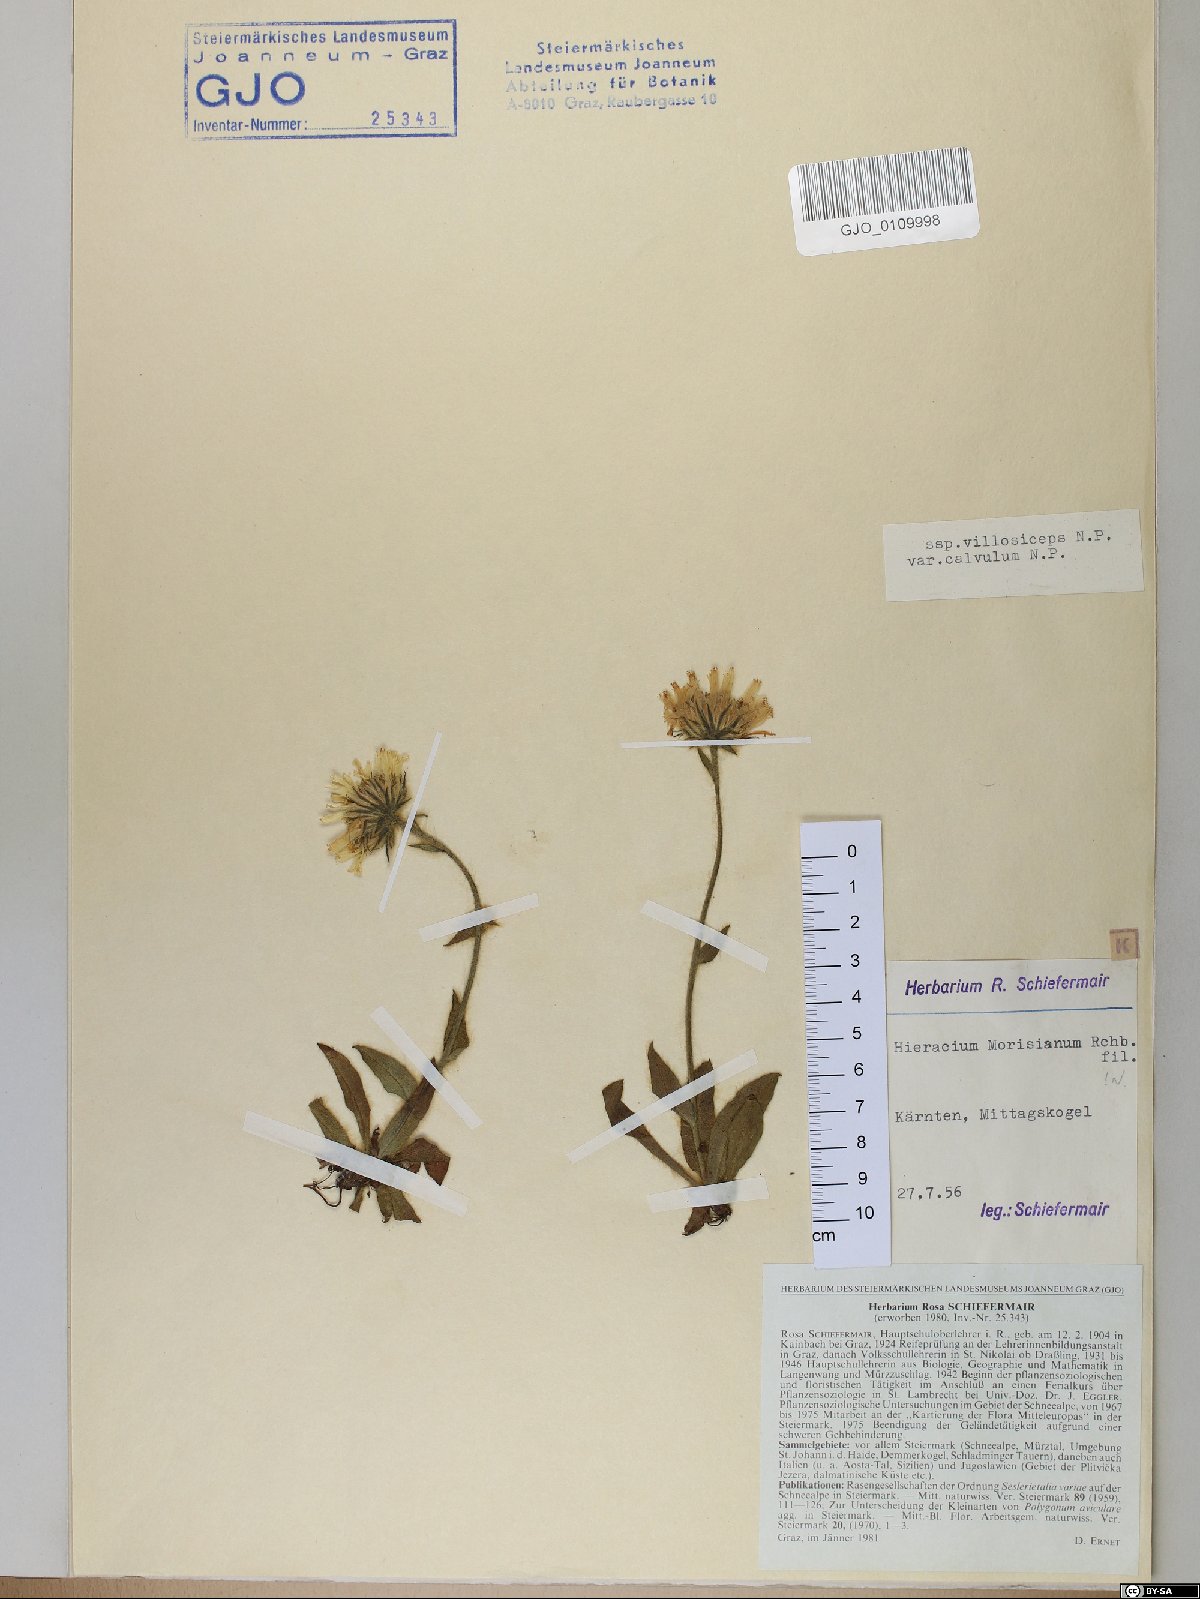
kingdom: Plantae
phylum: Tracheophyta
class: Magnoliopsida
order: Asterales
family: Asteraceae
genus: Hieracium
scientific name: Hieracium pilosum
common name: Fimbriate-pitted hawkweed
